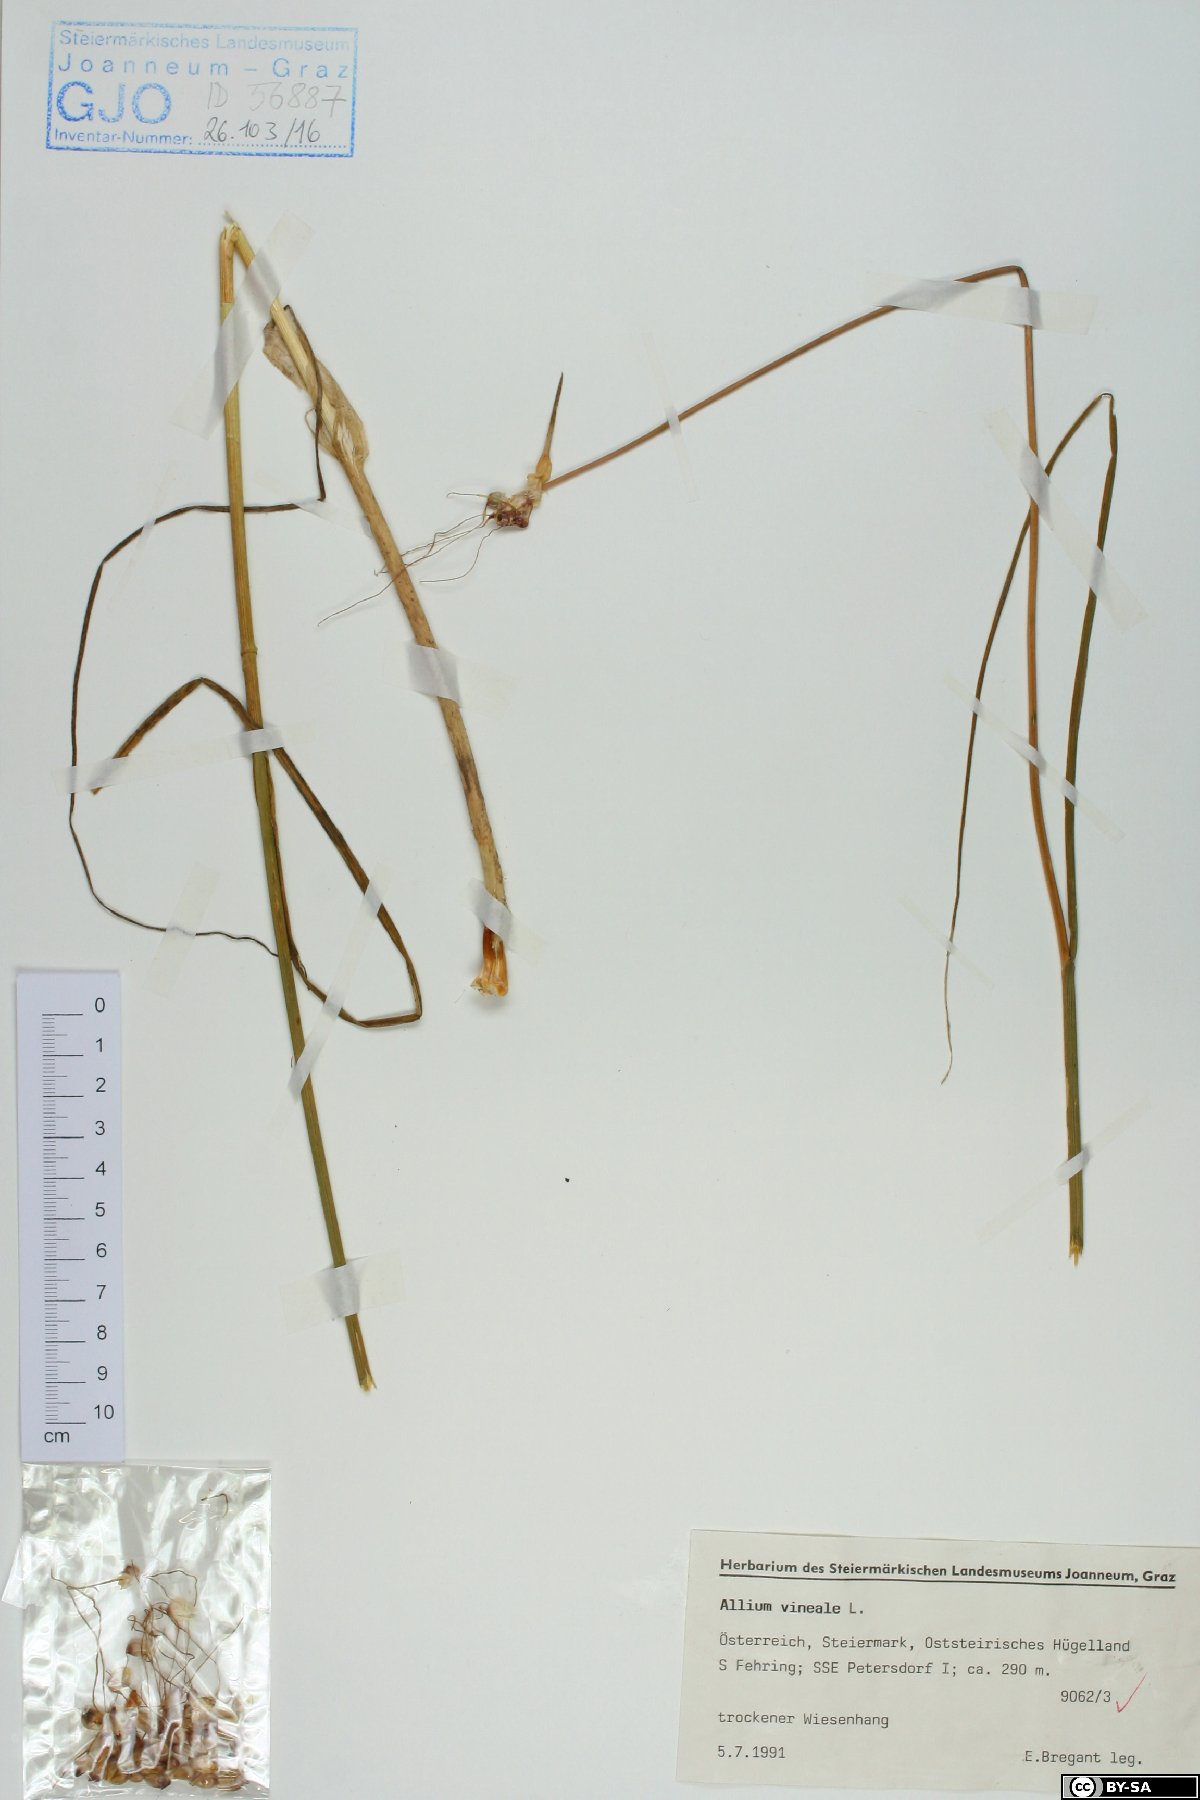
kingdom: Plantae
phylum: Tracheophyta
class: Liliopsida
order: Asparagales
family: Amaryllidaceae
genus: Allium
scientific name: Allium vineale
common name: Crow garlic
